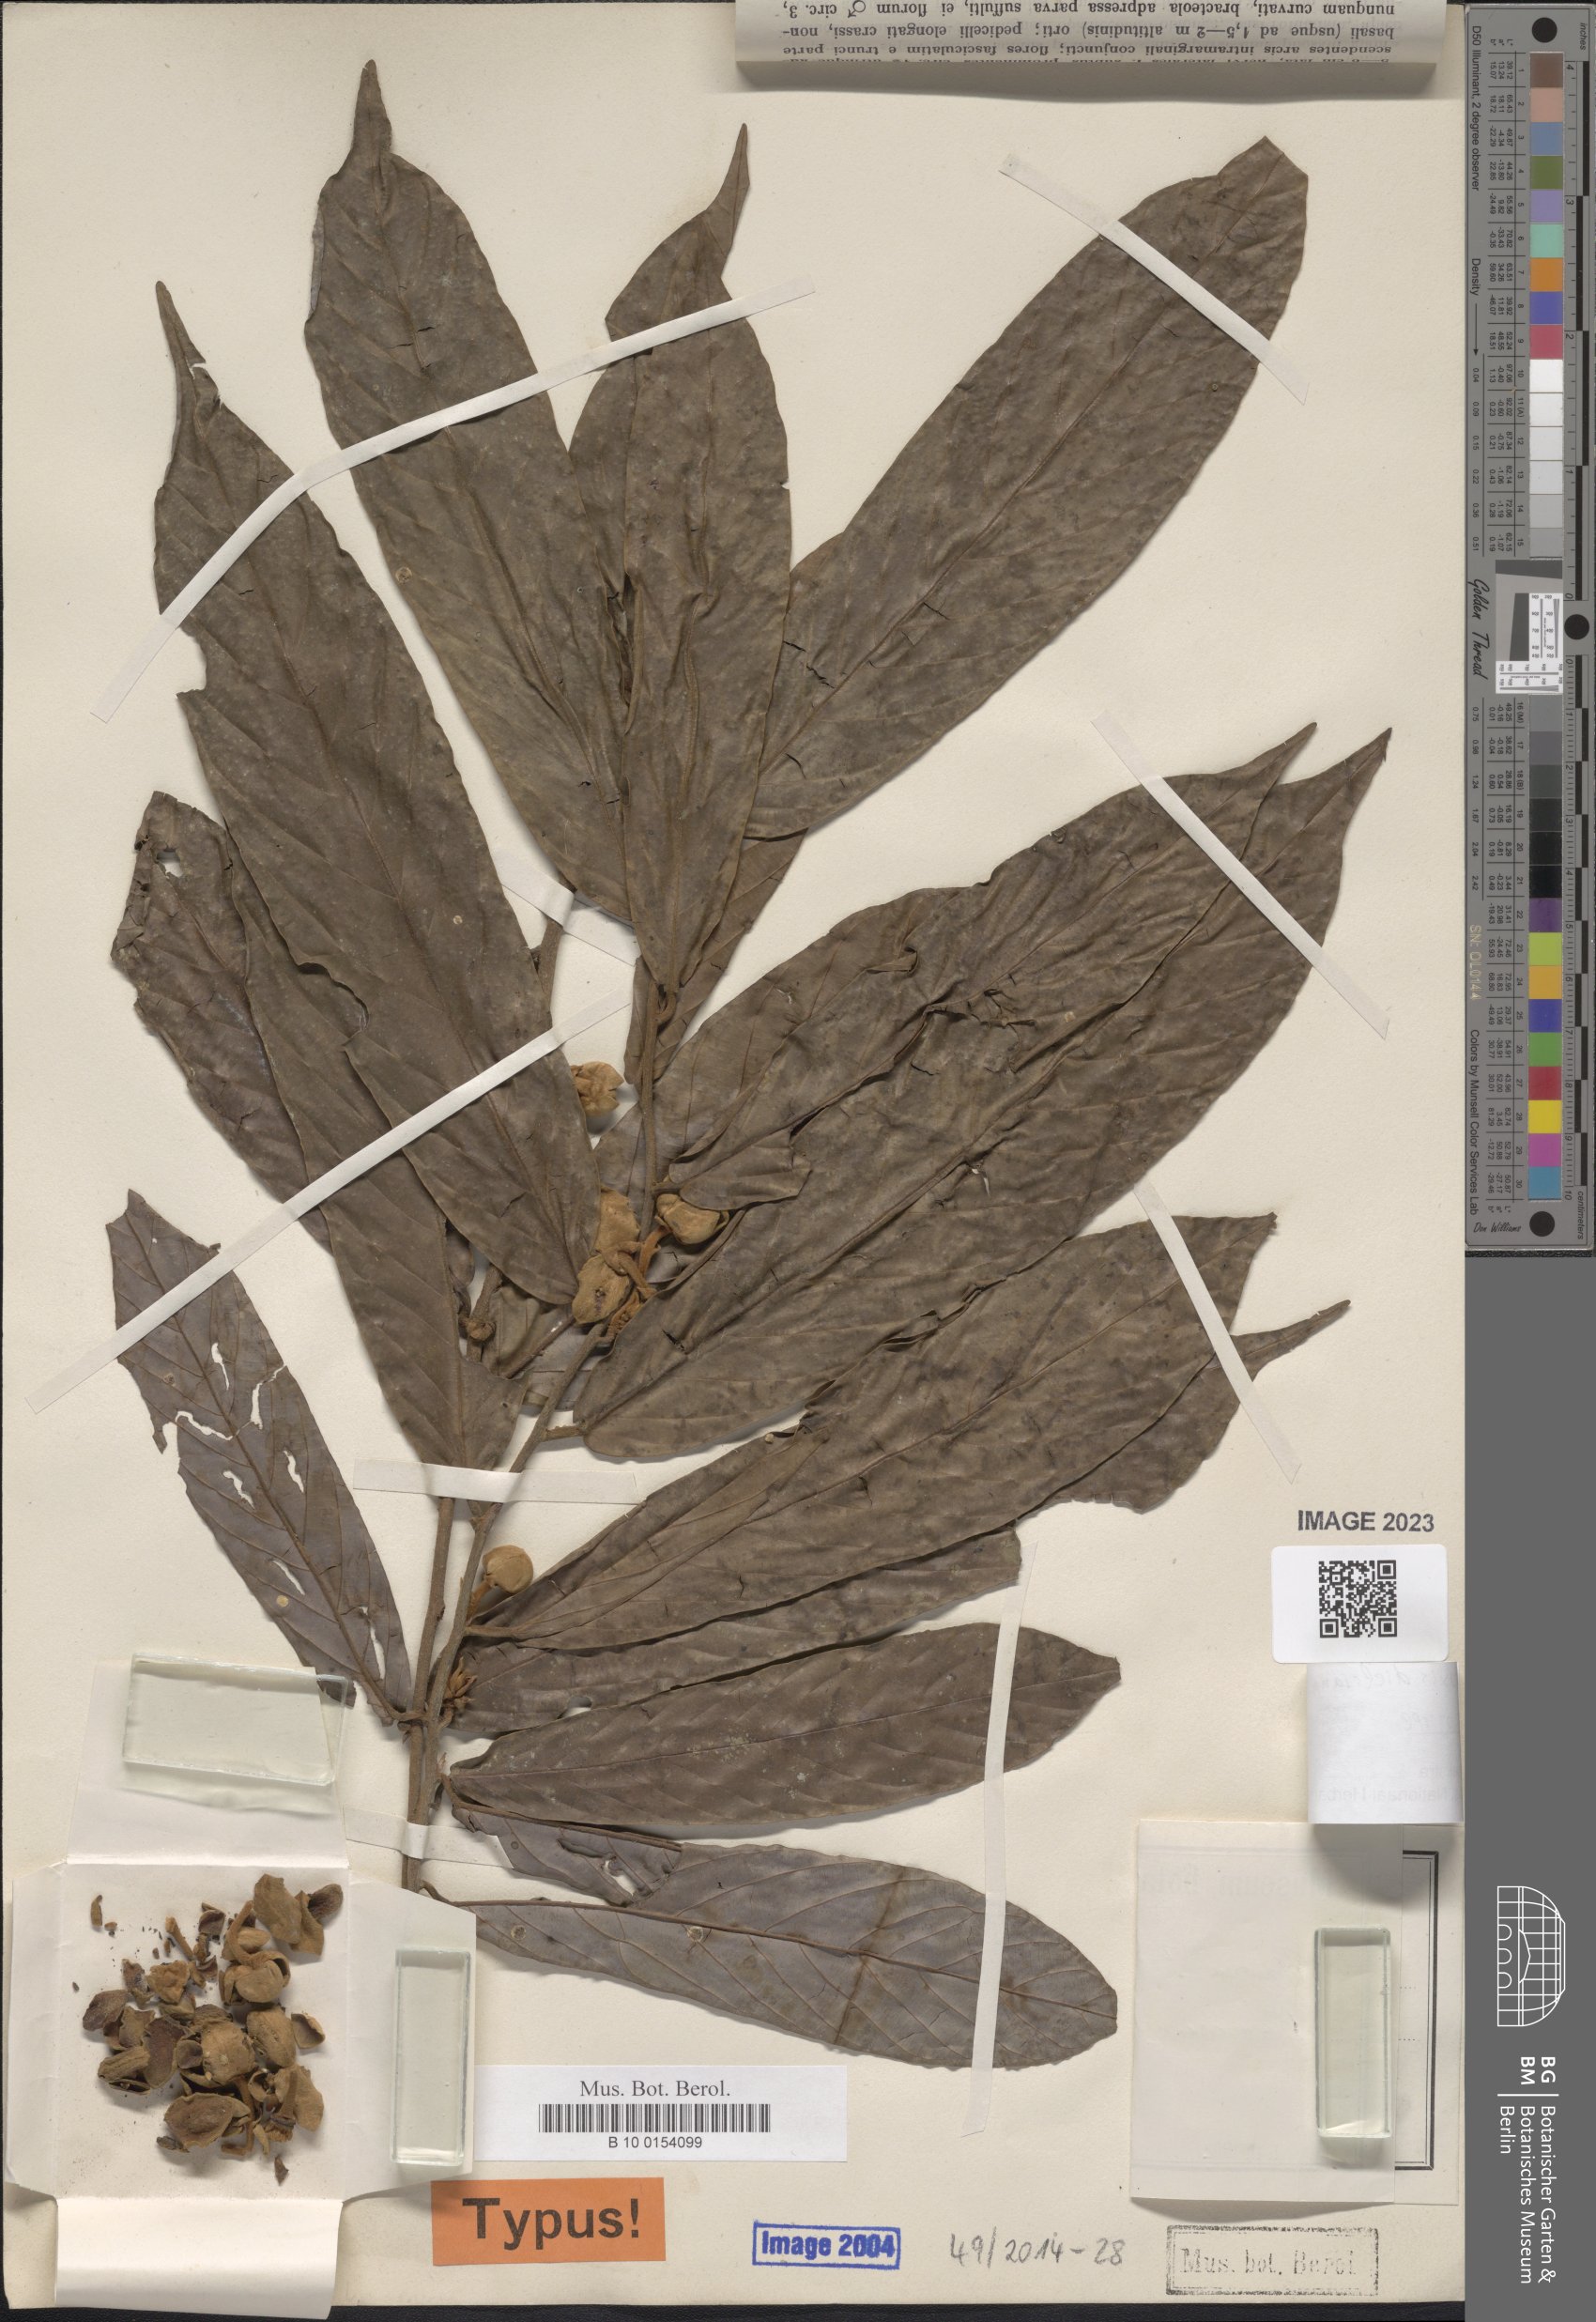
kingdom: Plantae
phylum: Tracheophyta
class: Magnoliopsida
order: Magnoliales
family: Annonaceae
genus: Friesodielsia
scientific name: Friesodielsia dielsiana
